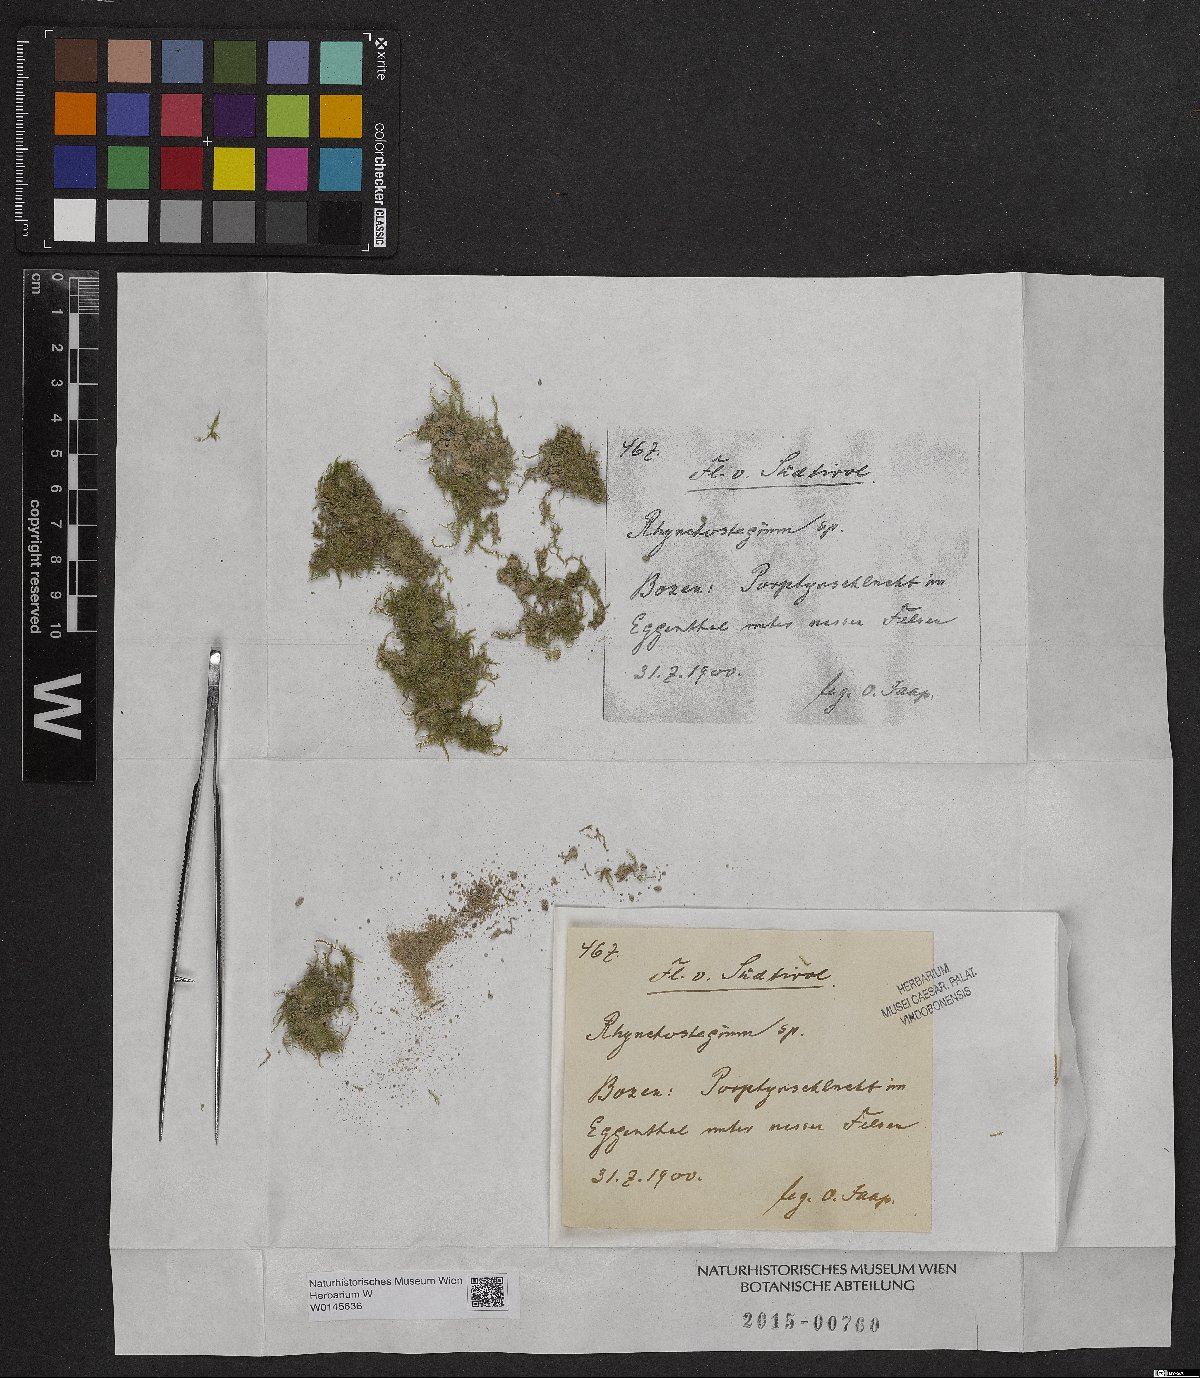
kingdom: Plantae
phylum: Bryophyta
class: Bryopsida
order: Hypnales
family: Brachytheciaceae
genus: Rhynchostegium
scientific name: Rhynchostegium
